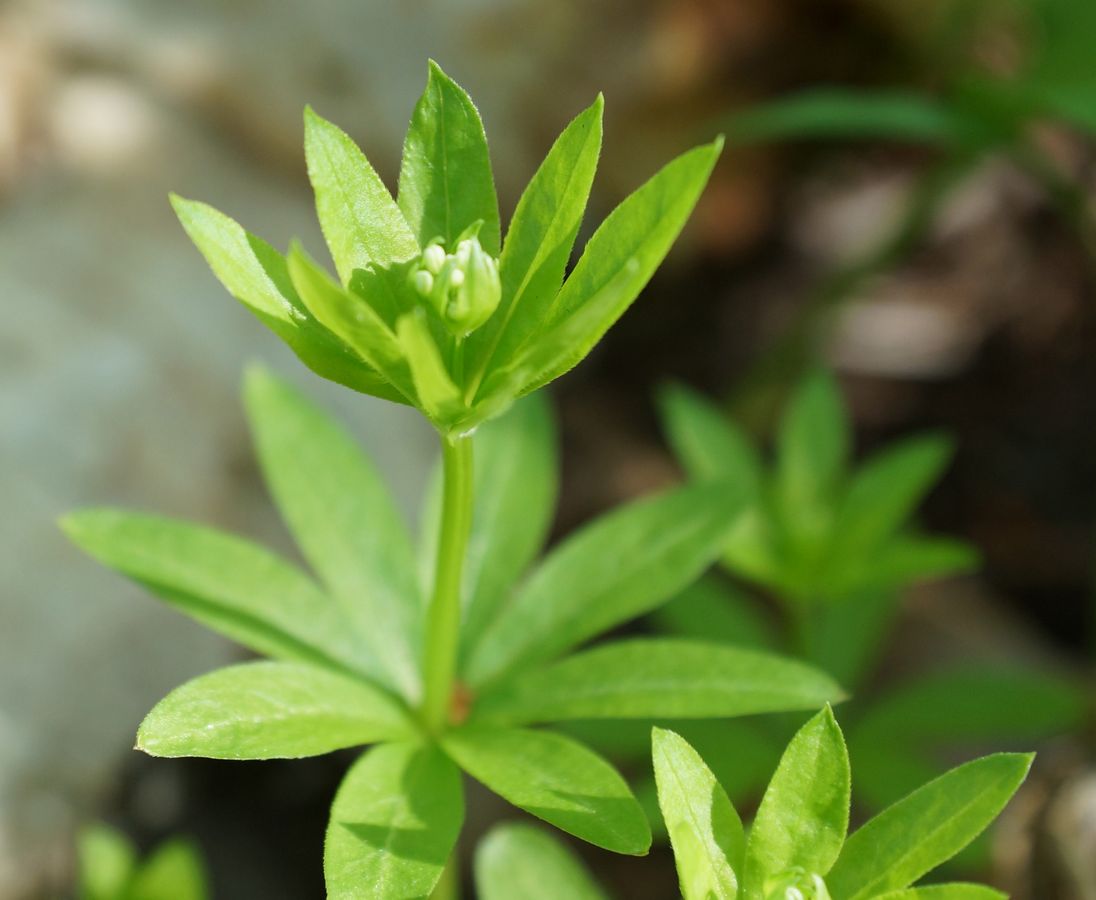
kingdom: Plantae
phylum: Tracheophyta
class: Magnoliopsida
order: Gentianales
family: Rubiaceae
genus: Galium
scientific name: Galium odoratum
